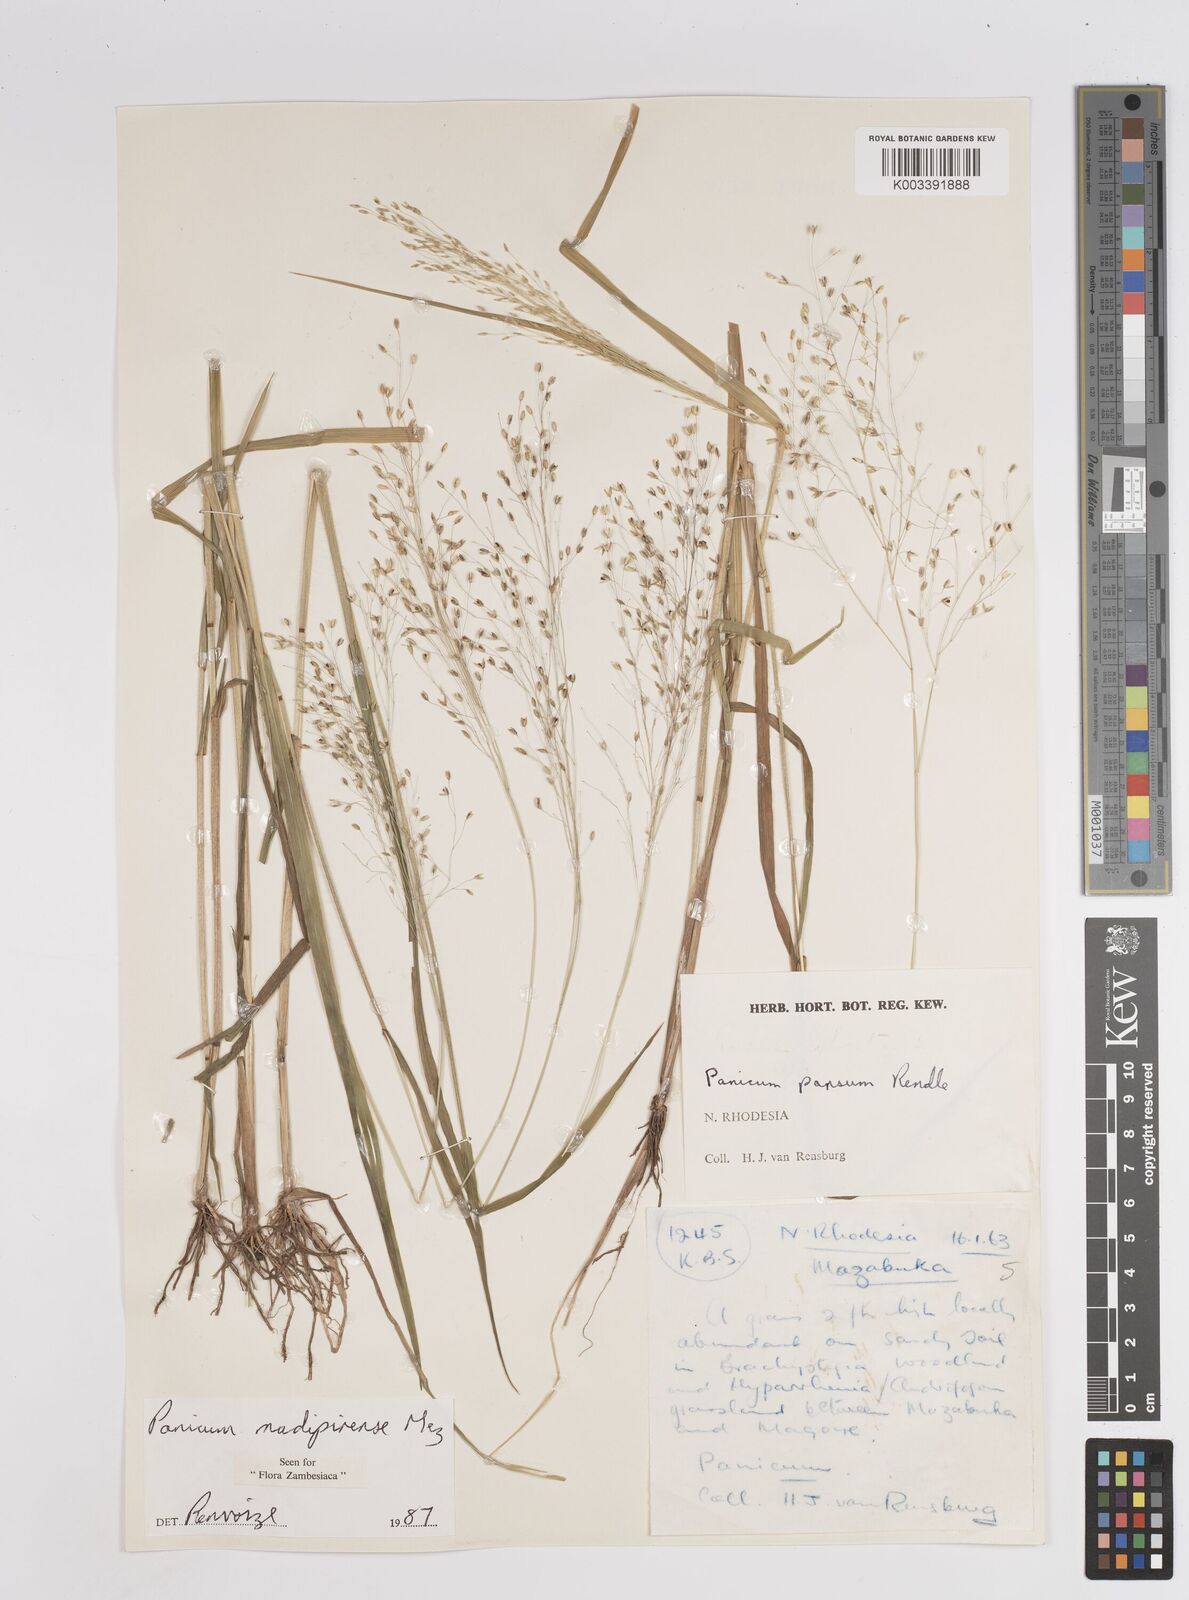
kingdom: Plantae
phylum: Tracheophyta
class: Liliopsida
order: Poales
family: Poaceae
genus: Panicum
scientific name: Panicum madipirense
